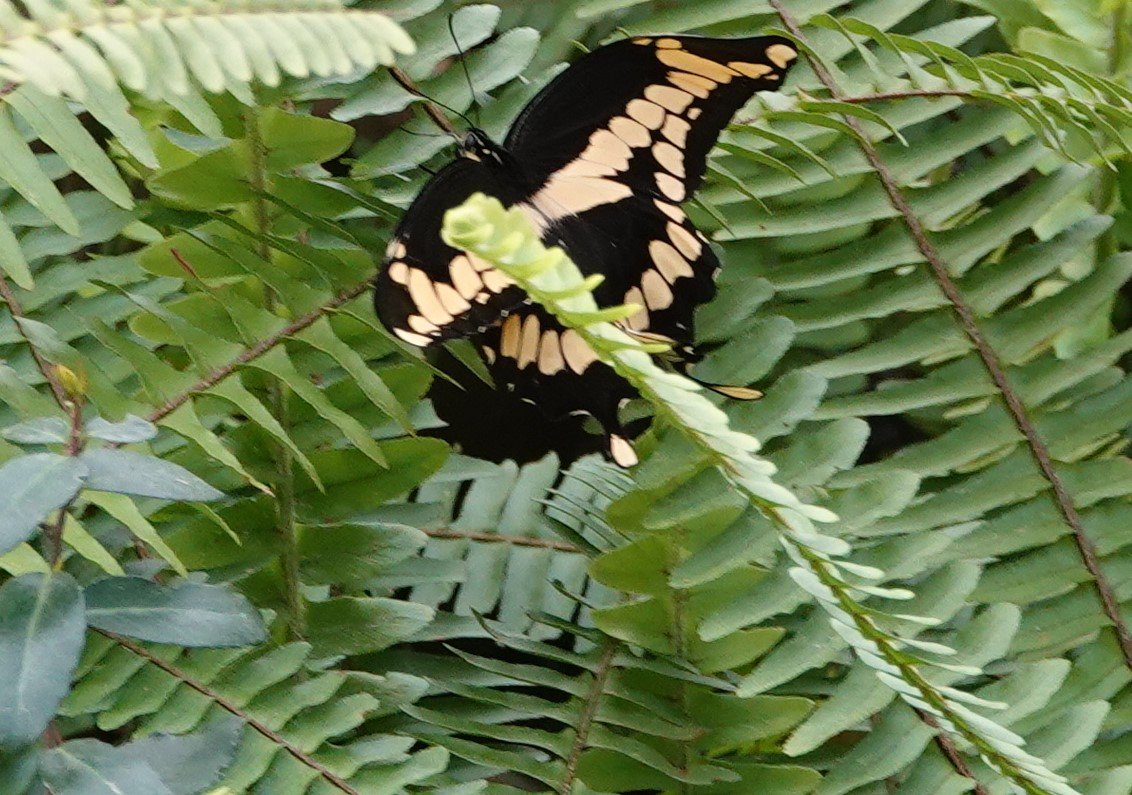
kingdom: Animalia
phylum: Arthropoda
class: Insecta
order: Lepidoptera
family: Papilionidae
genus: Papilio
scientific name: Papilio cresphontes
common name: Eastern Giant Swallowtail
